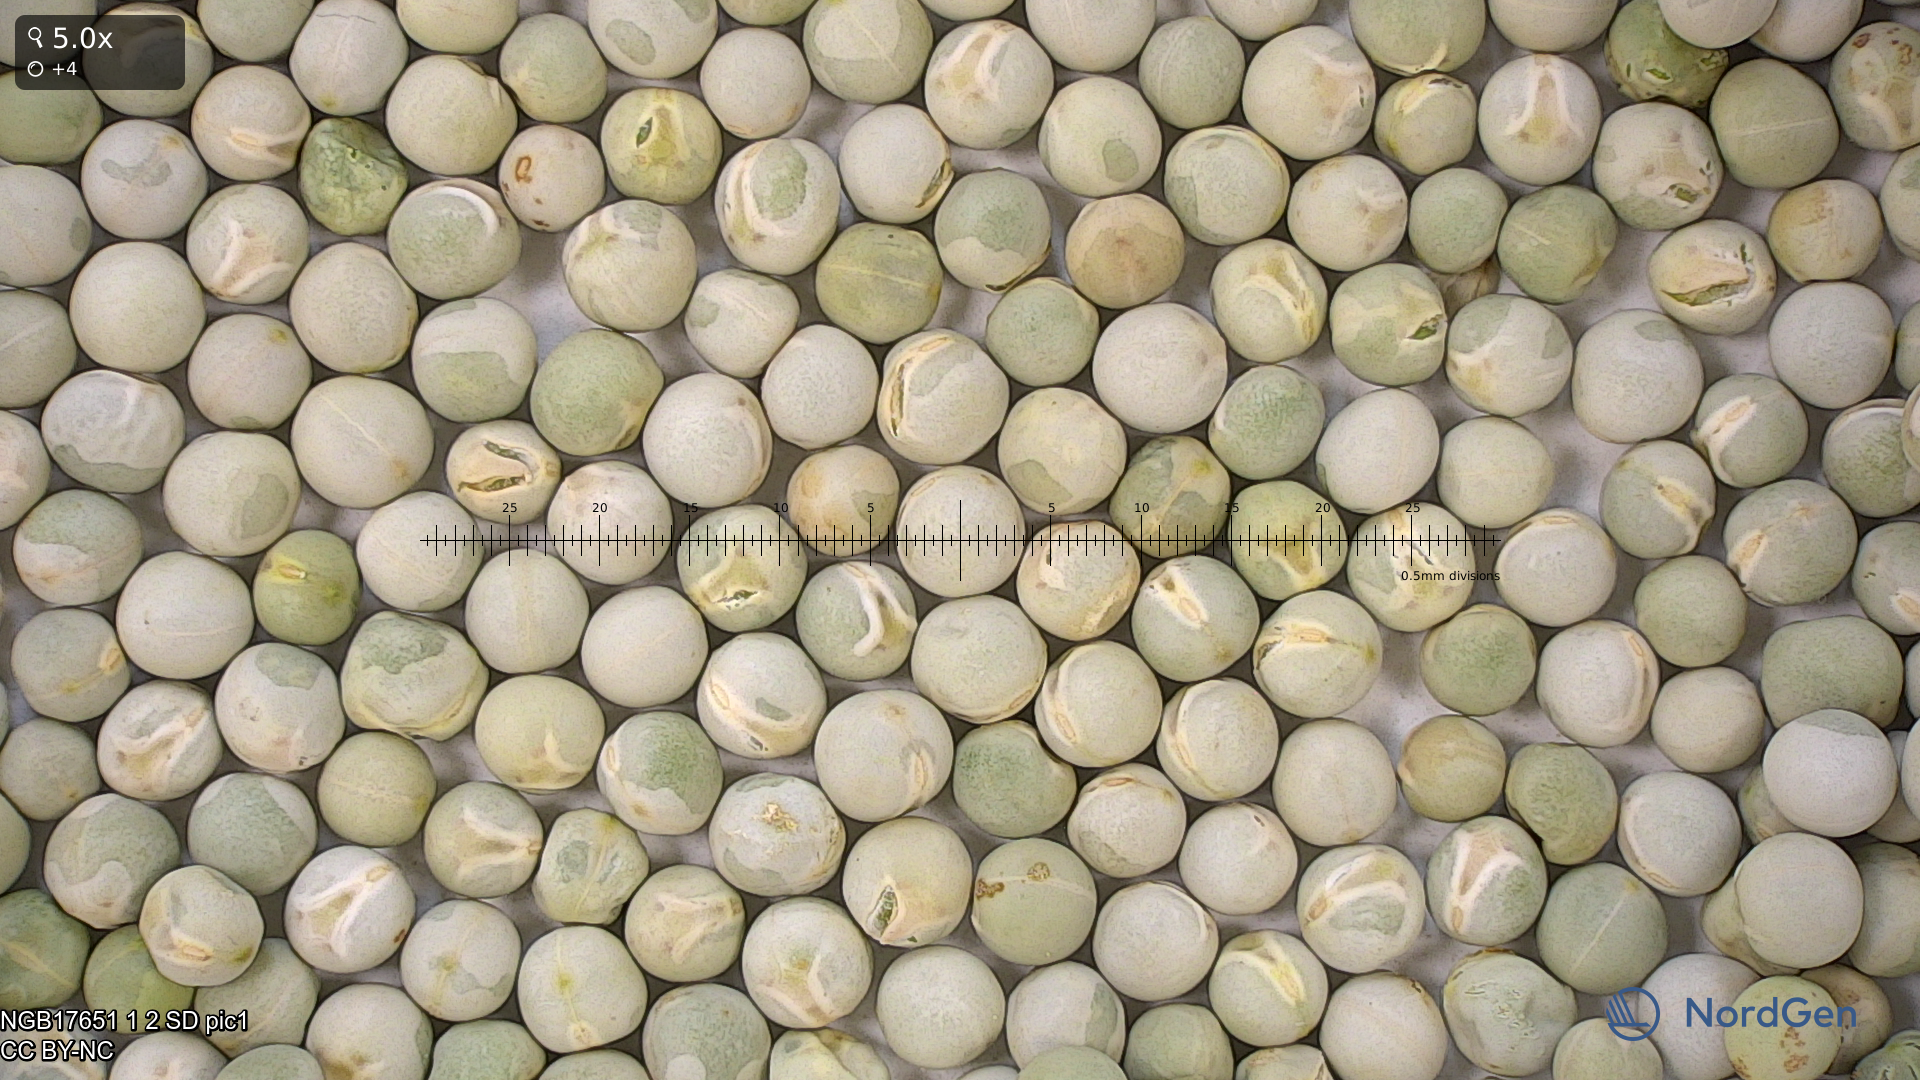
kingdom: Plantae
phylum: Tracheophyta
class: Magnoliopsida
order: Fabales
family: Fabaceae
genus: Lathyrus
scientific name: Lathyrus oleraceus
